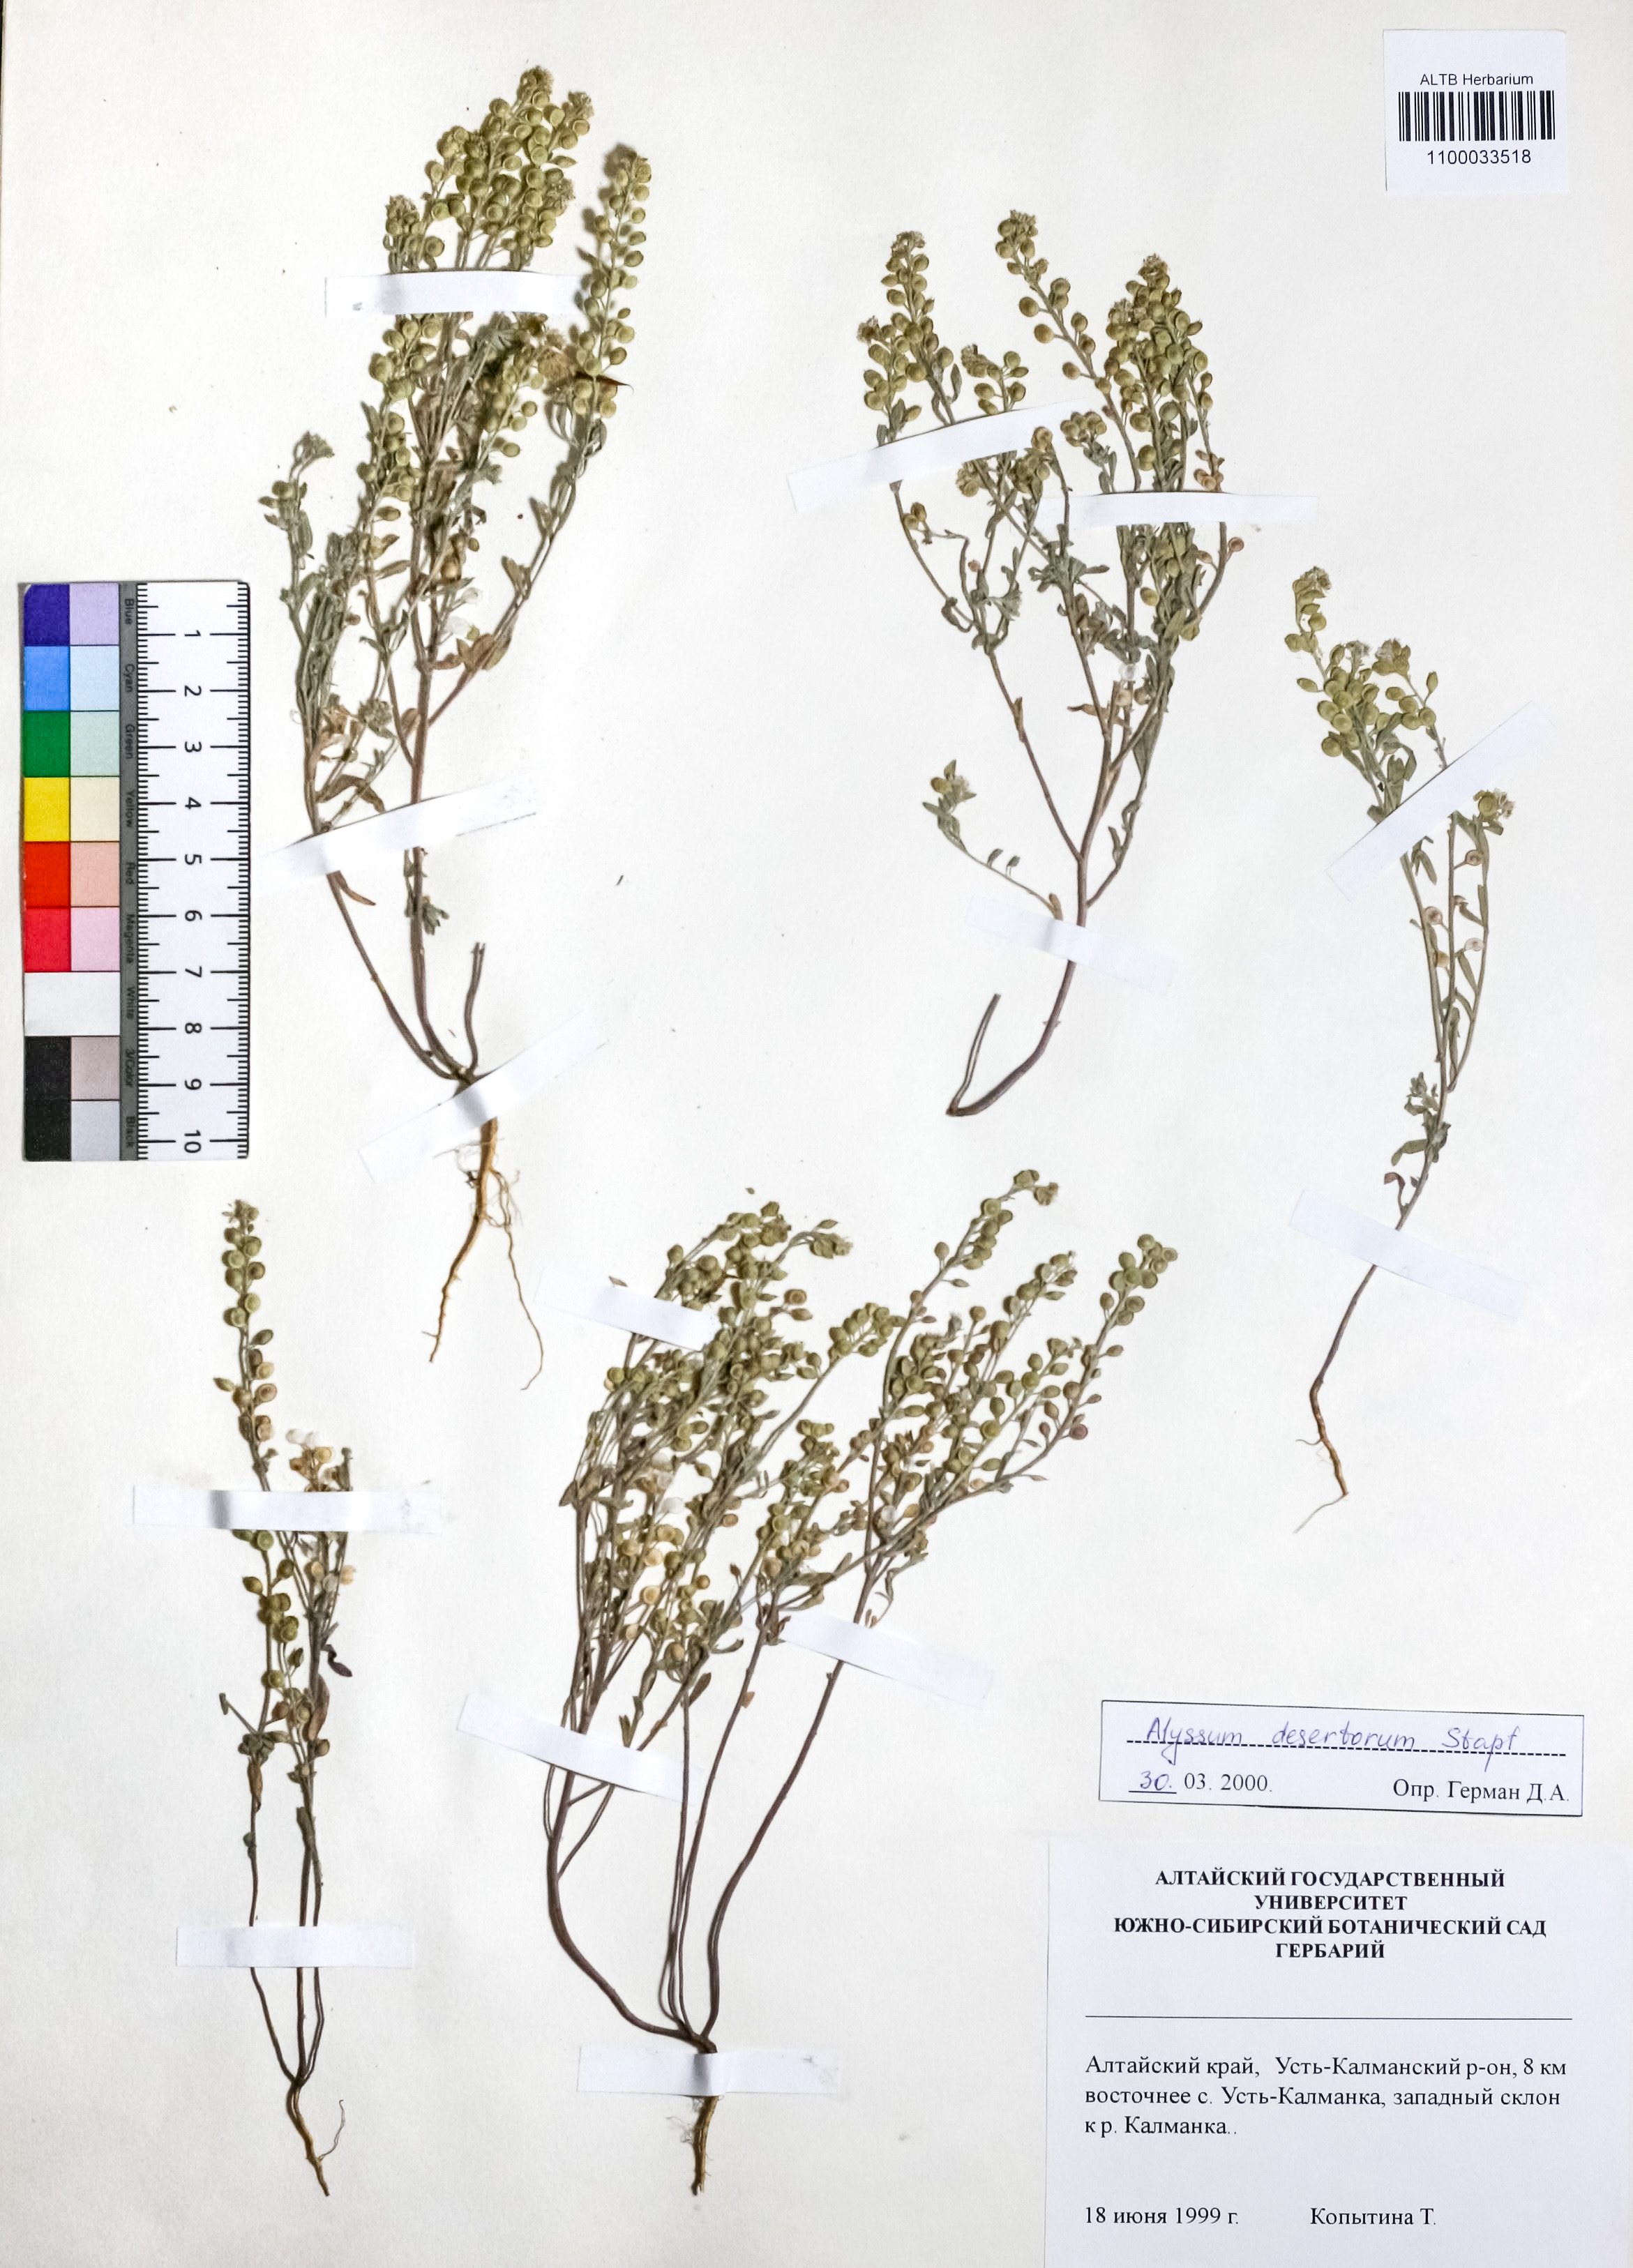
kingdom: Plantae
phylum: Tracheophyta
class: Magnoliopsida
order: Brassicales
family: Brassicaceae
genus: Alyssum
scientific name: Alyssum turkestanicum
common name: Desert alyssum
